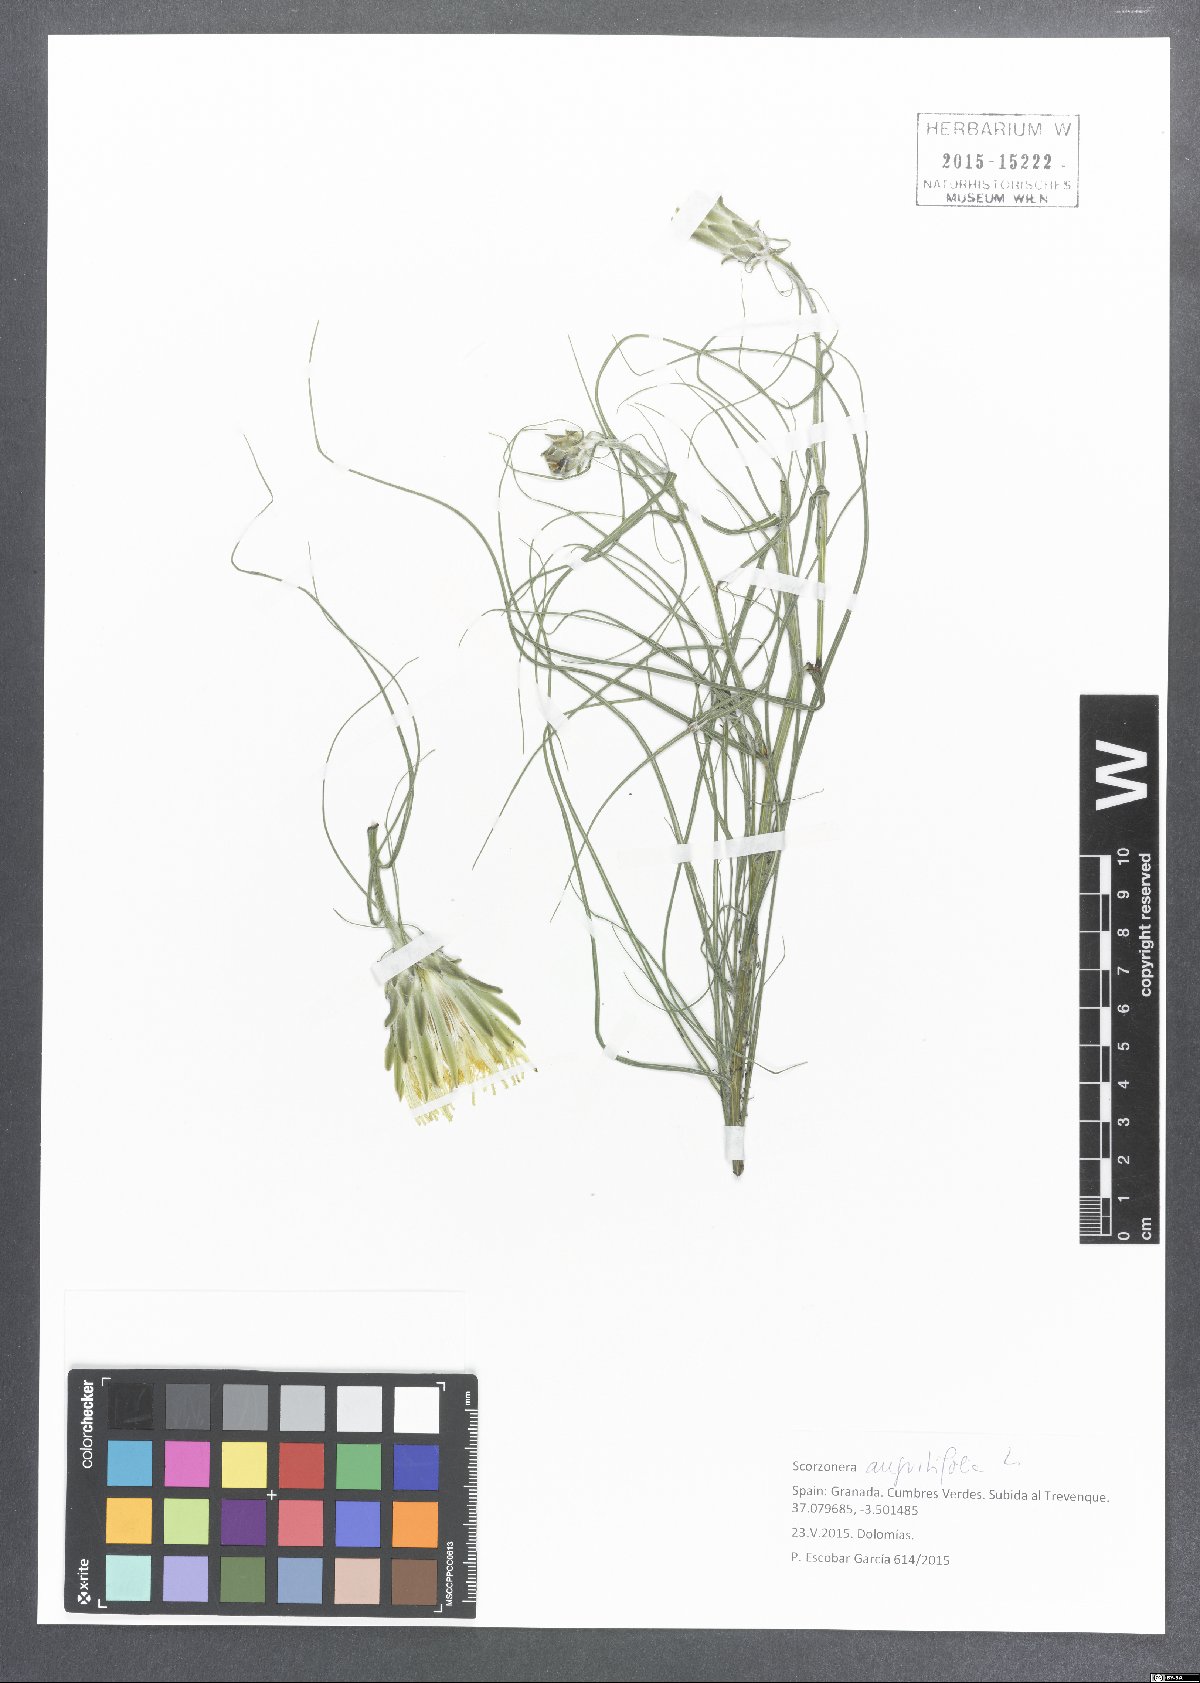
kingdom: Plantae
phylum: Tracheophyta
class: Magnoliopsida
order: Asterales
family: Asteraceae
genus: Scorzonera
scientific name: Scorzonera angustifolia
